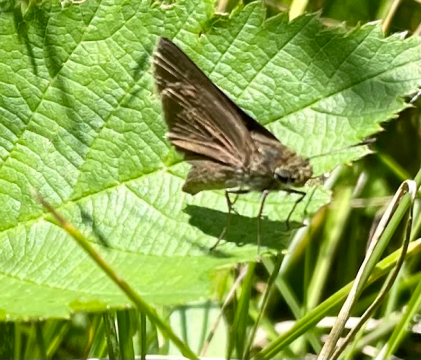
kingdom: Animalia
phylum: Arthropoda
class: Insecta
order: Lepidoptera
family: Hesperiidae
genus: Euphyes
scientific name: Euphyes vestris
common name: Dun Skipper
